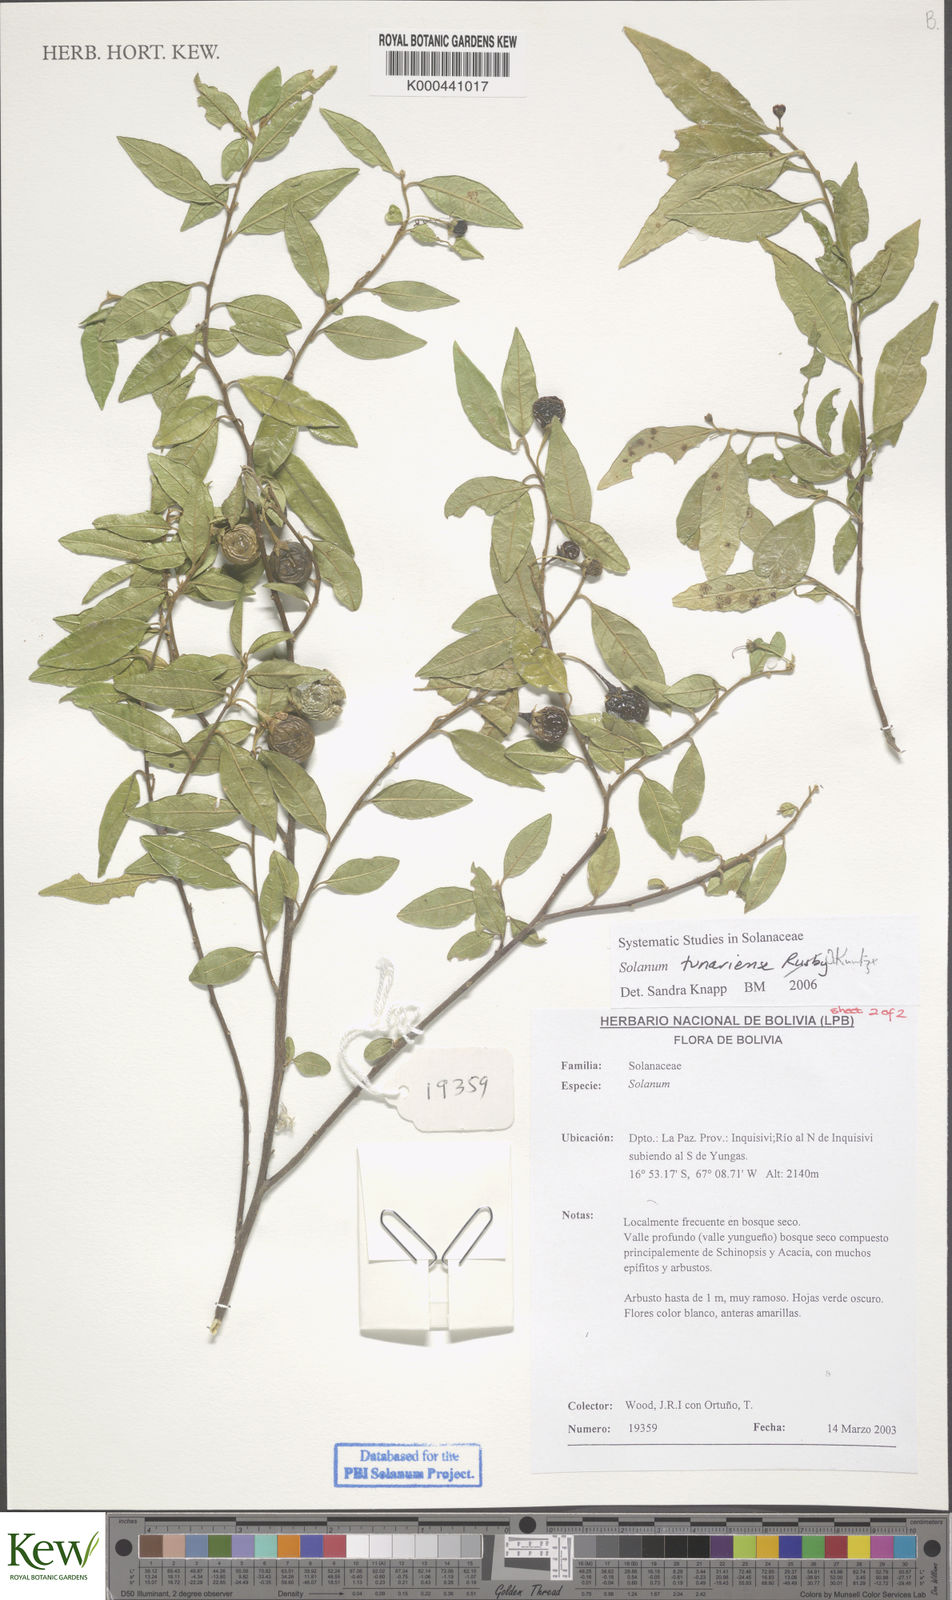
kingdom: Plantae
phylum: Tracheophyta
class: Magnoliopsida
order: Solanales
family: Solanaceae
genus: Solanum
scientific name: Solanum tunariense
